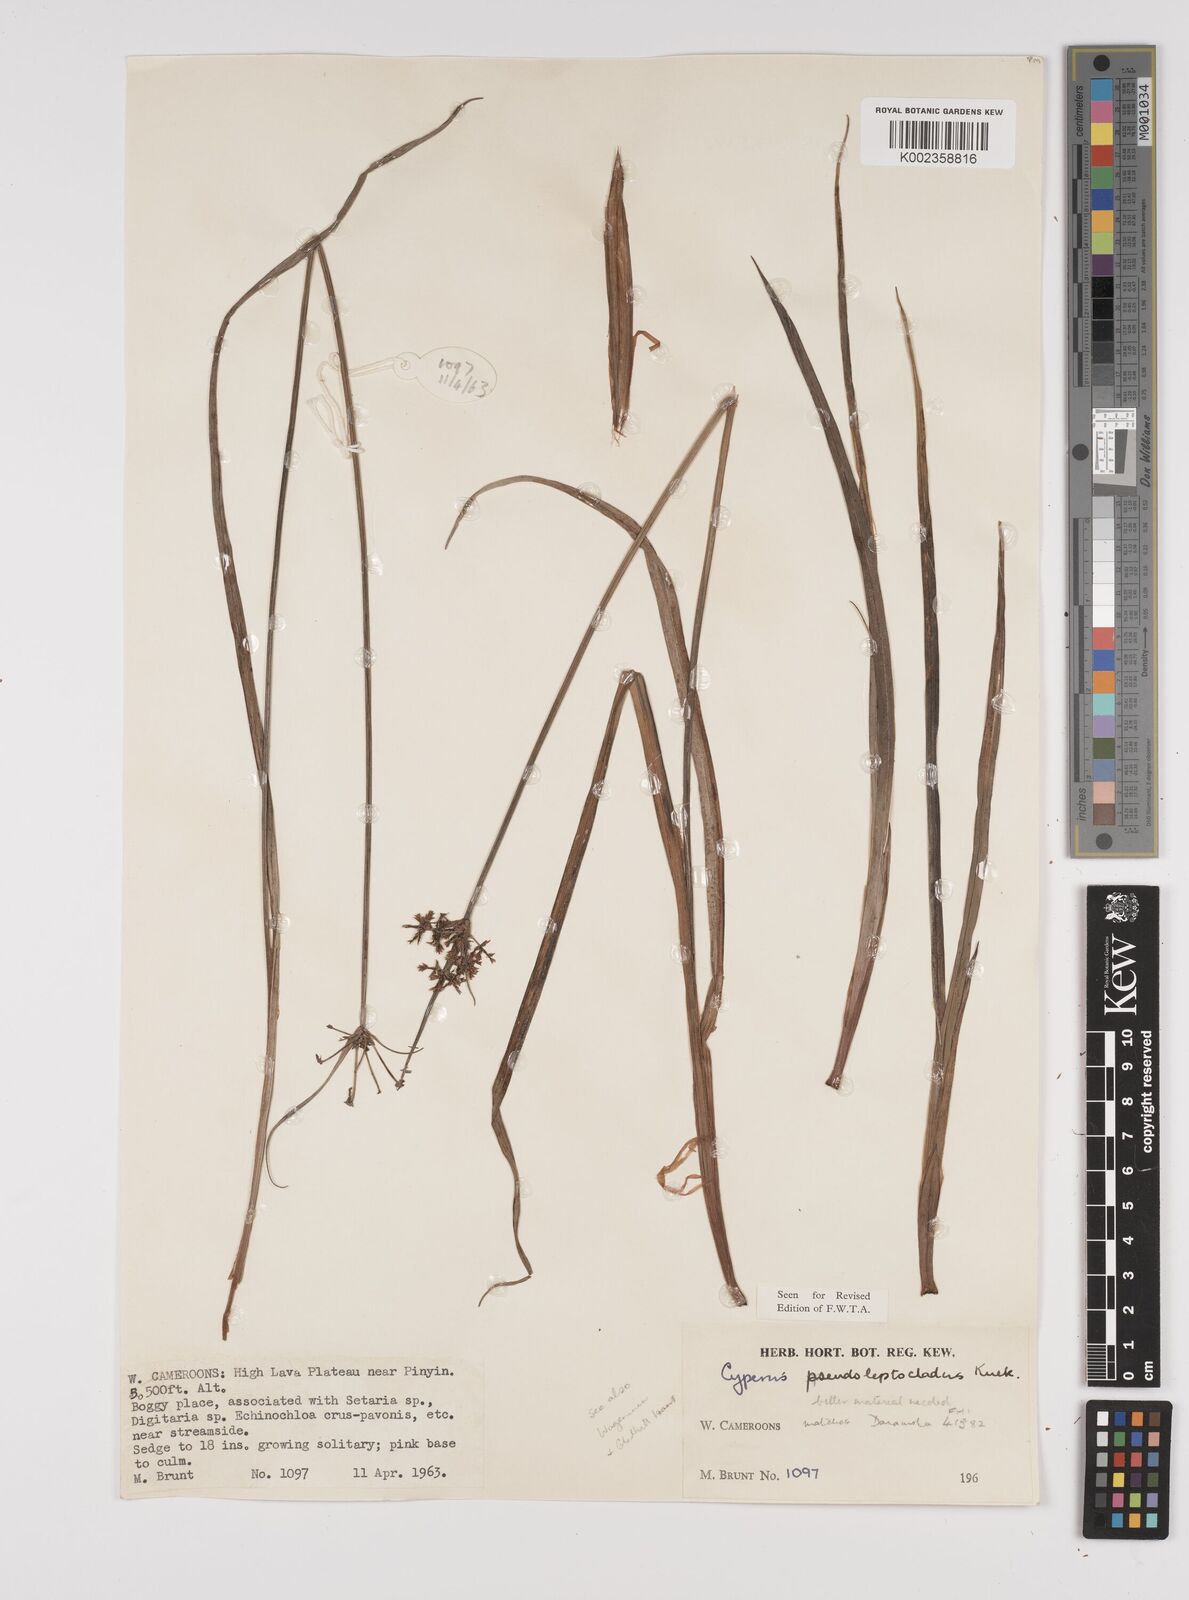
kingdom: Plantae
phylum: Tracheophyta
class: Liliopsida
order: Poales
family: Cyperaceae
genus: Cyperus
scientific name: Cyperus glaucophyllus
